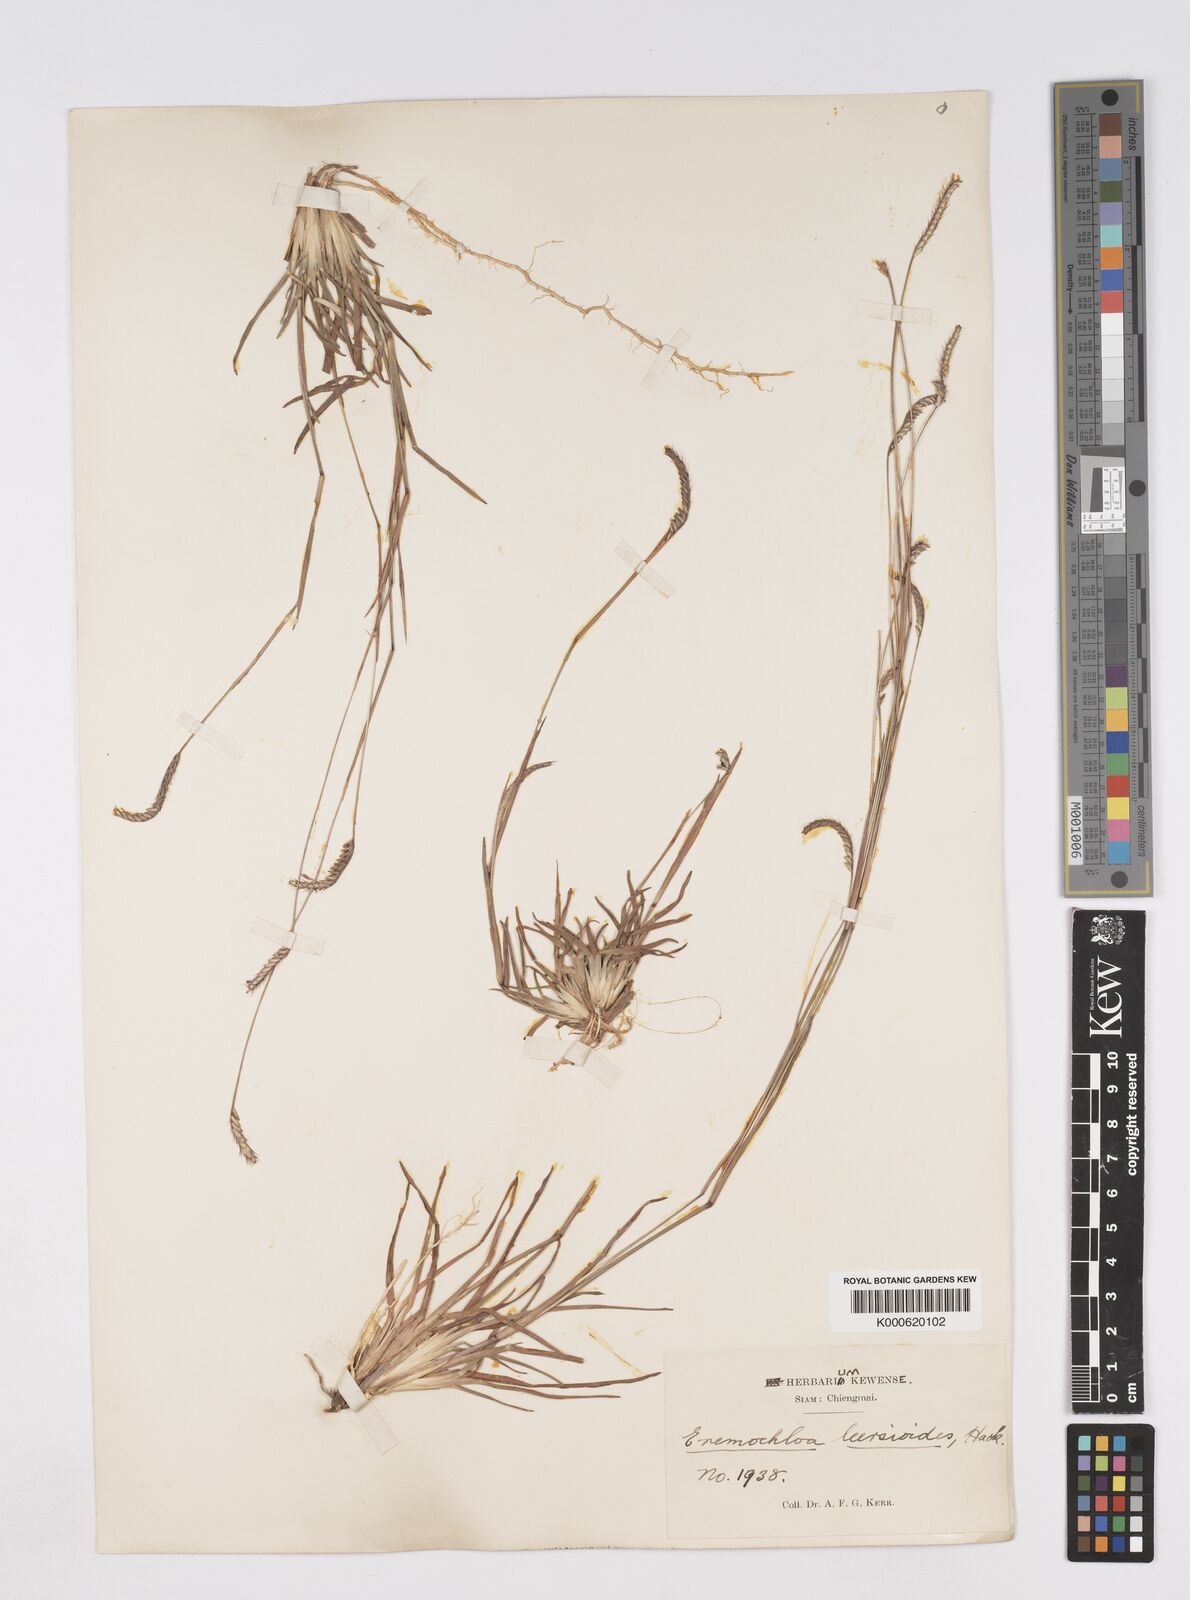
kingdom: Plantae
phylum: Tracheophyta
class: Liliopsida
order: Poales
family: Poaceae
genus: Eremochloa
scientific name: Eremochloa ciliaris
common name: Fringed centipede grass
